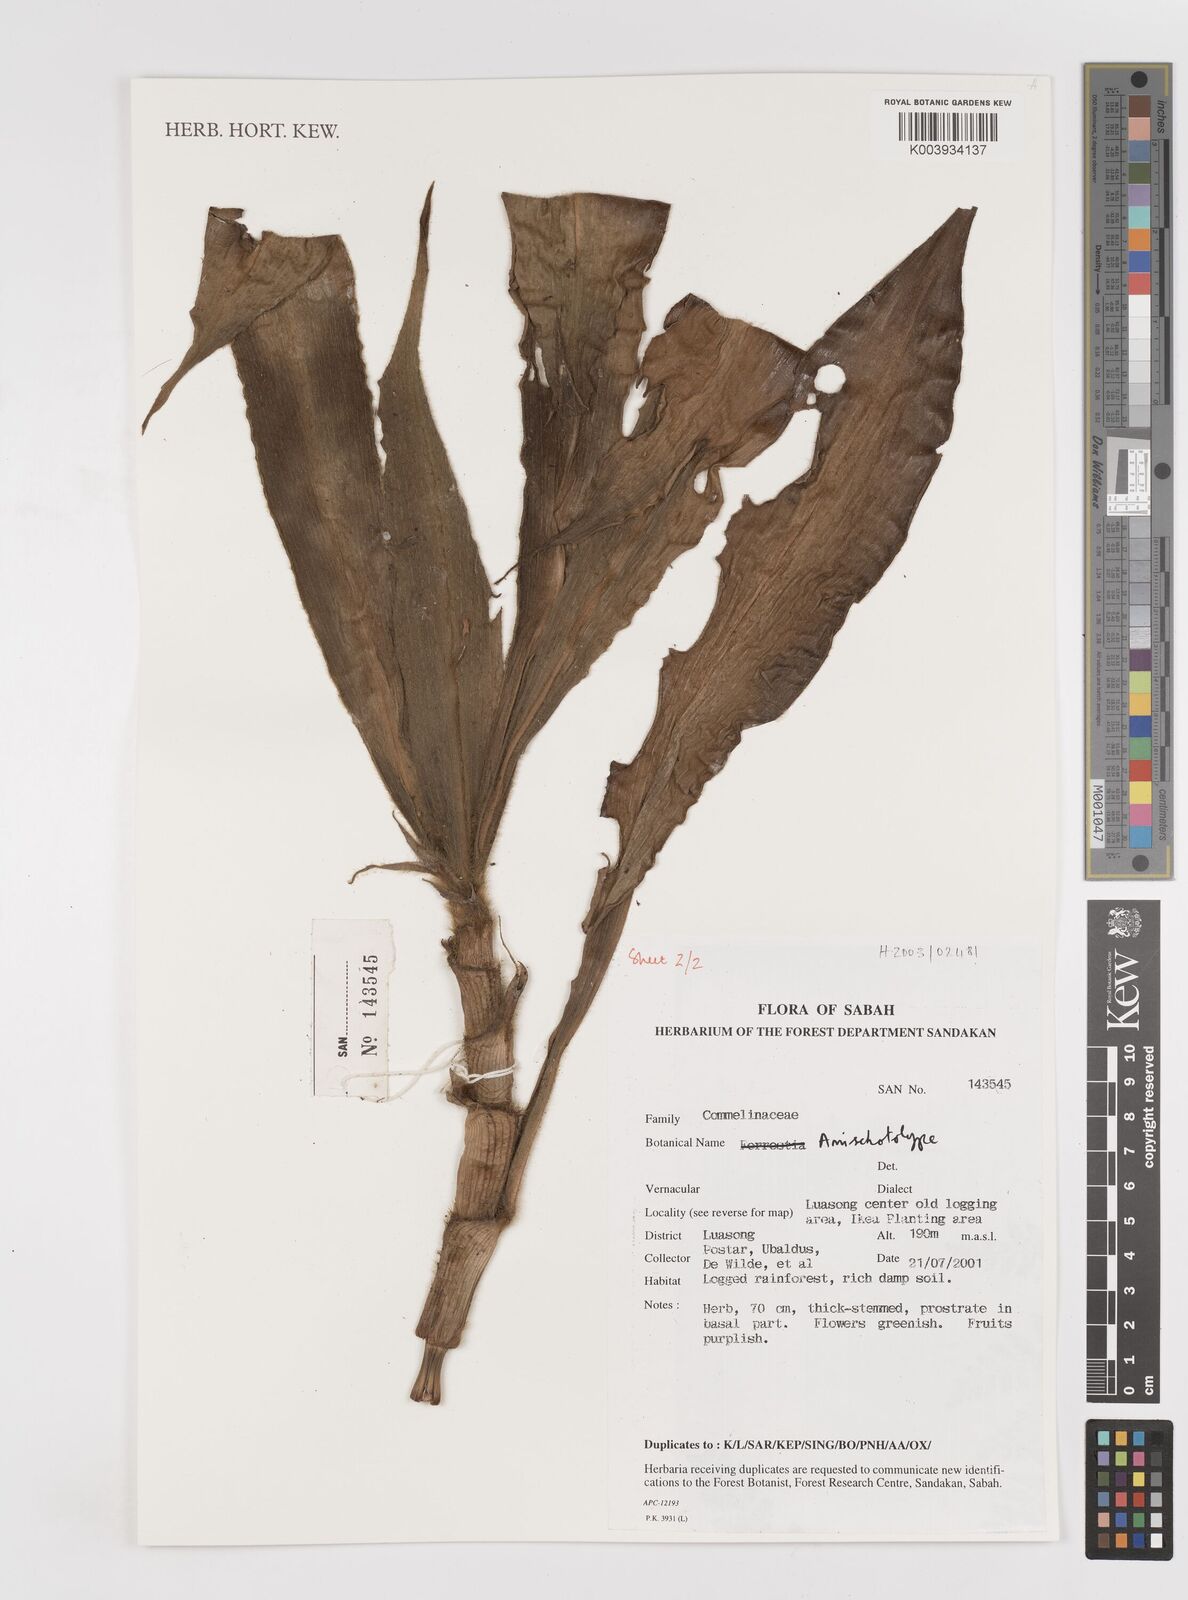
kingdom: Plantae
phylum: Tracheophyta
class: Liliopsida
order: Commelinales
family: Commelinaceae
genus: Amischotolype
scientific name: Amischotolype
